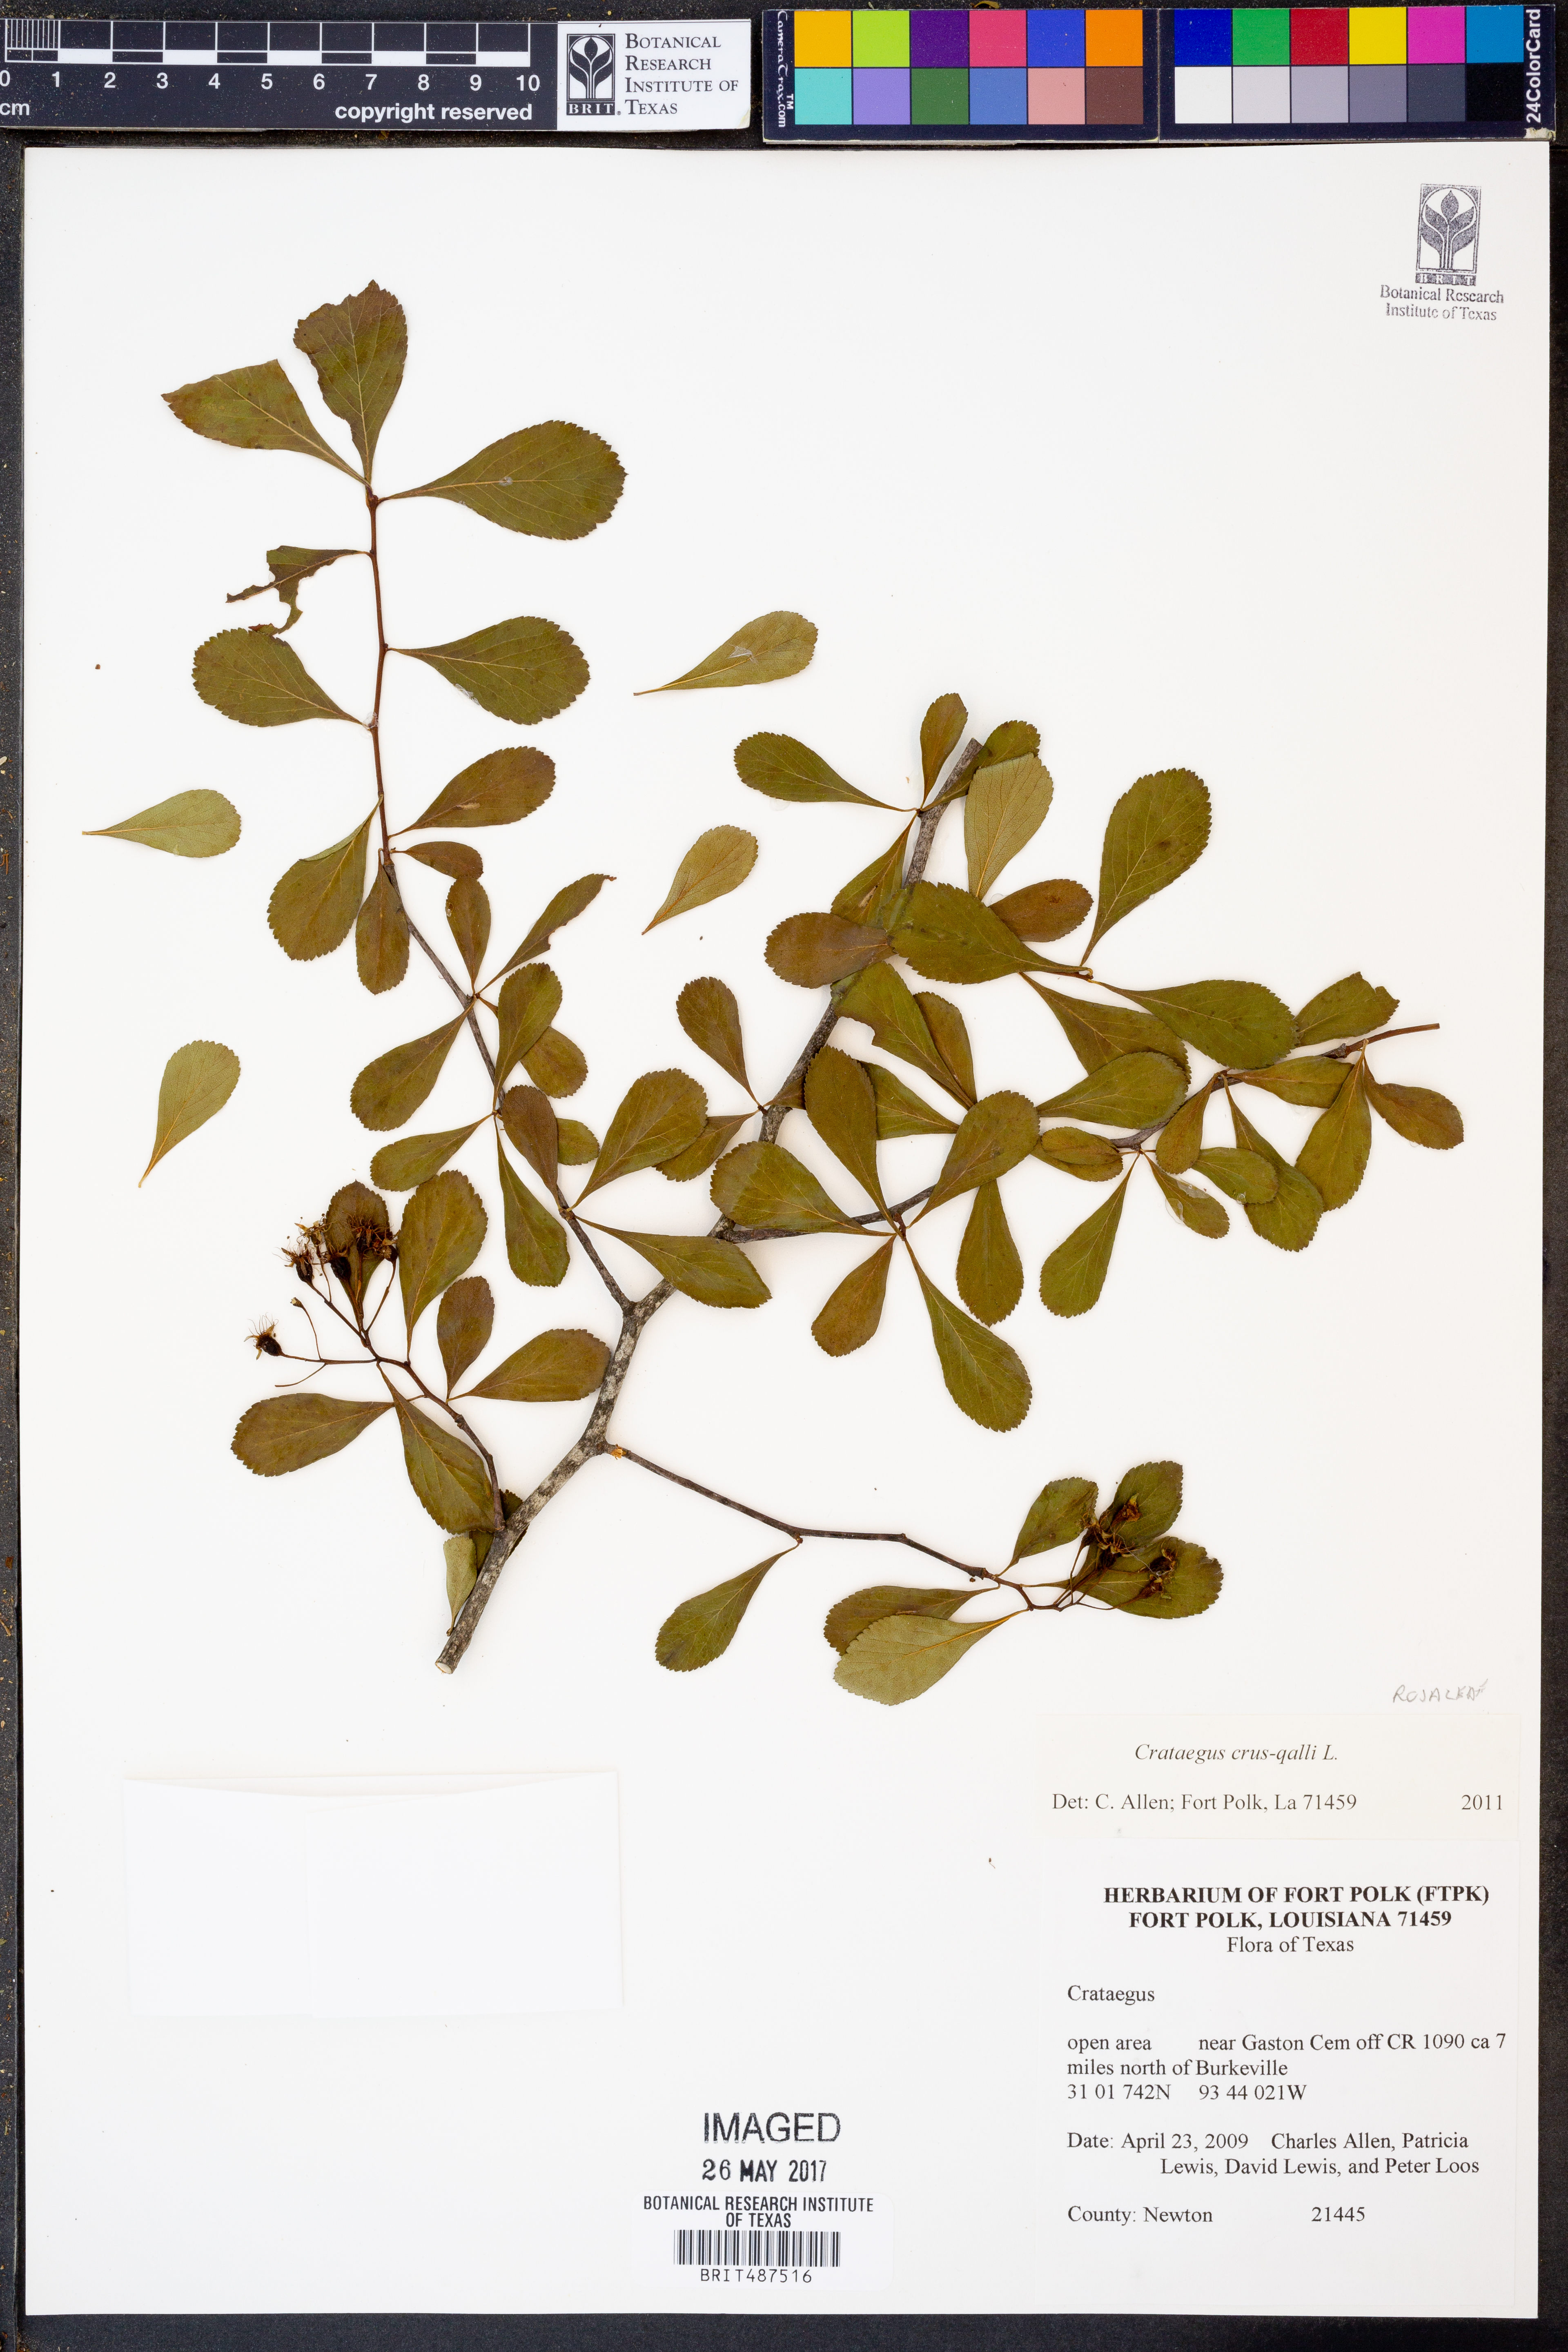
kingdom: Plantae
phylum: Tracheophyta
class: Magnoliopsida
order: Rosales
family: Rosaceae
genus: Crataegus
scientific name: Crataegus crus-galli
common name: Cockspurthorn
